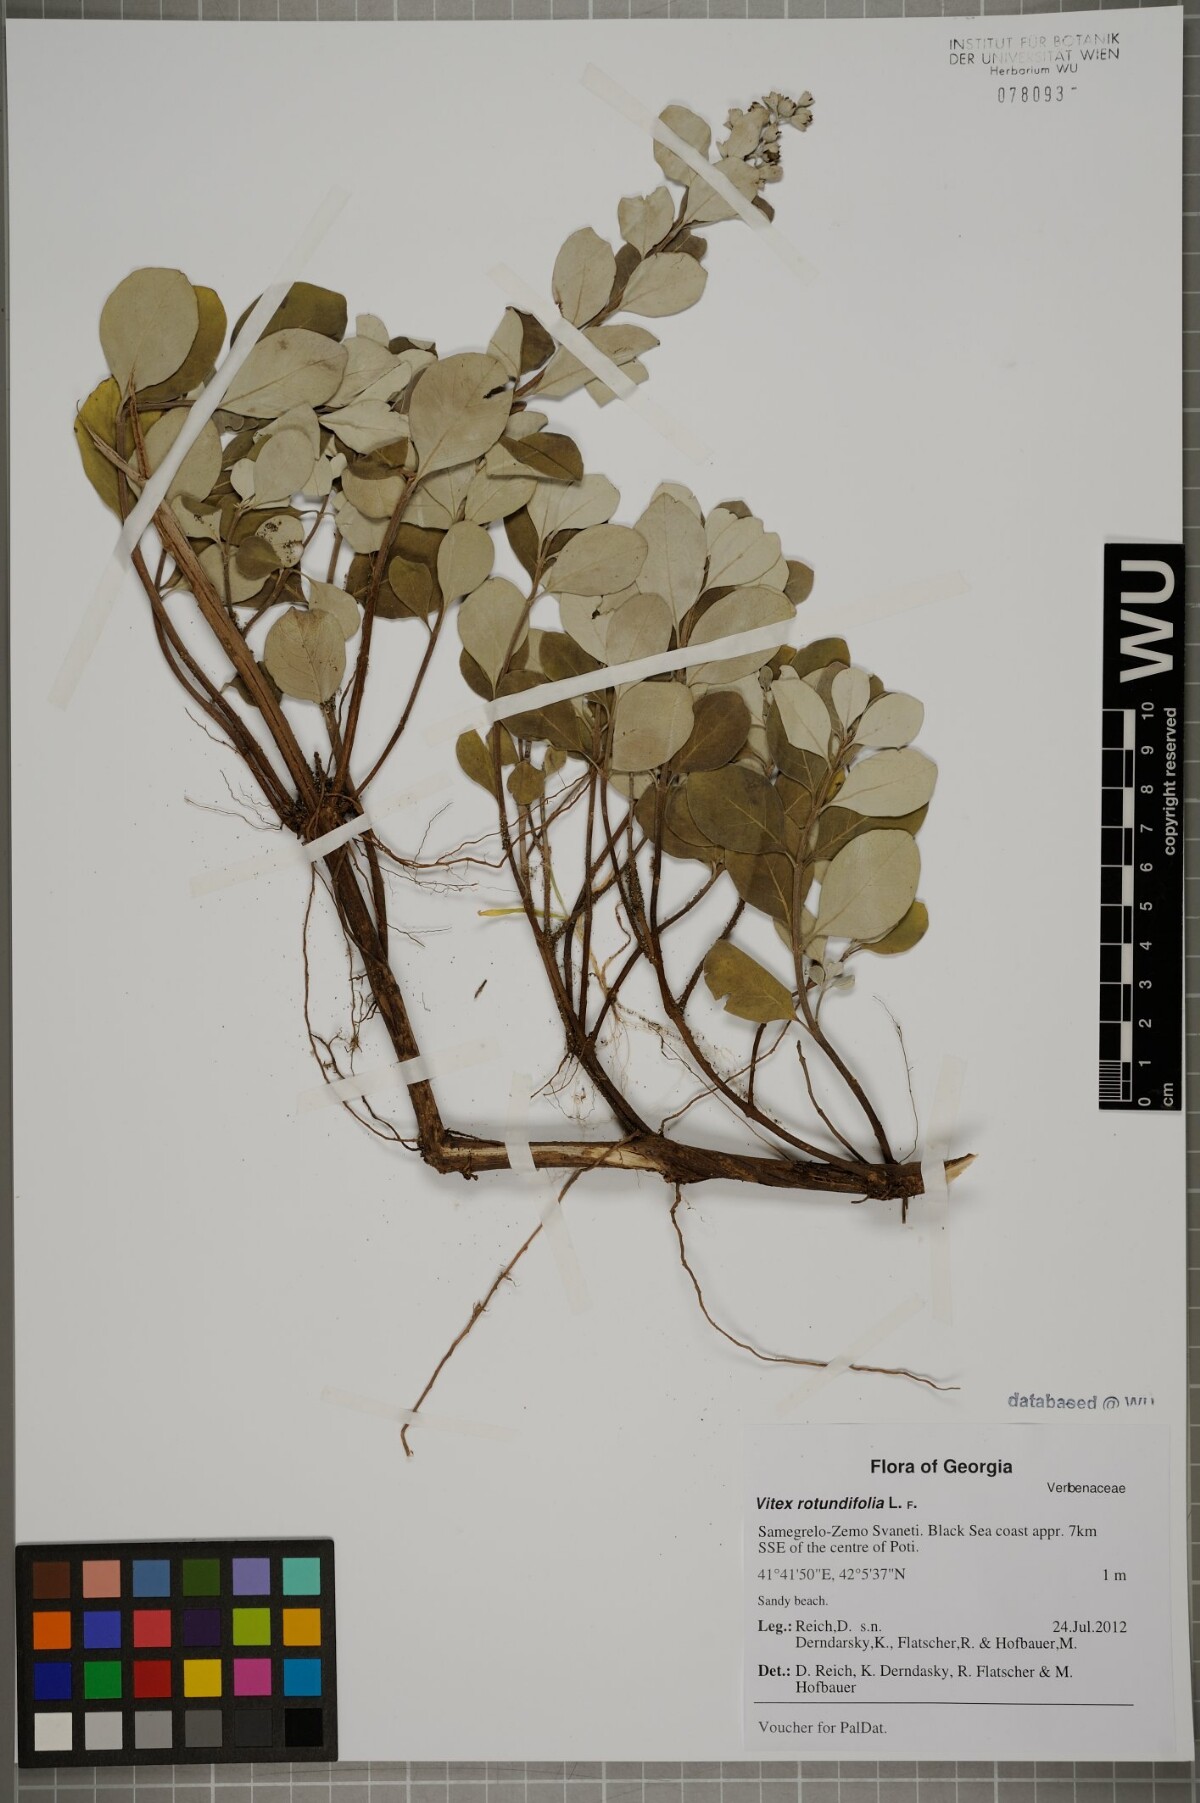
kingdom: Plantae
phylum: Tracheophyta
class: Magnoliopsida
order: Lamiales
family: Lamiaceae
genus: Vitex
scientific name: Vitex rotundifolia
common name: Beach vitex
